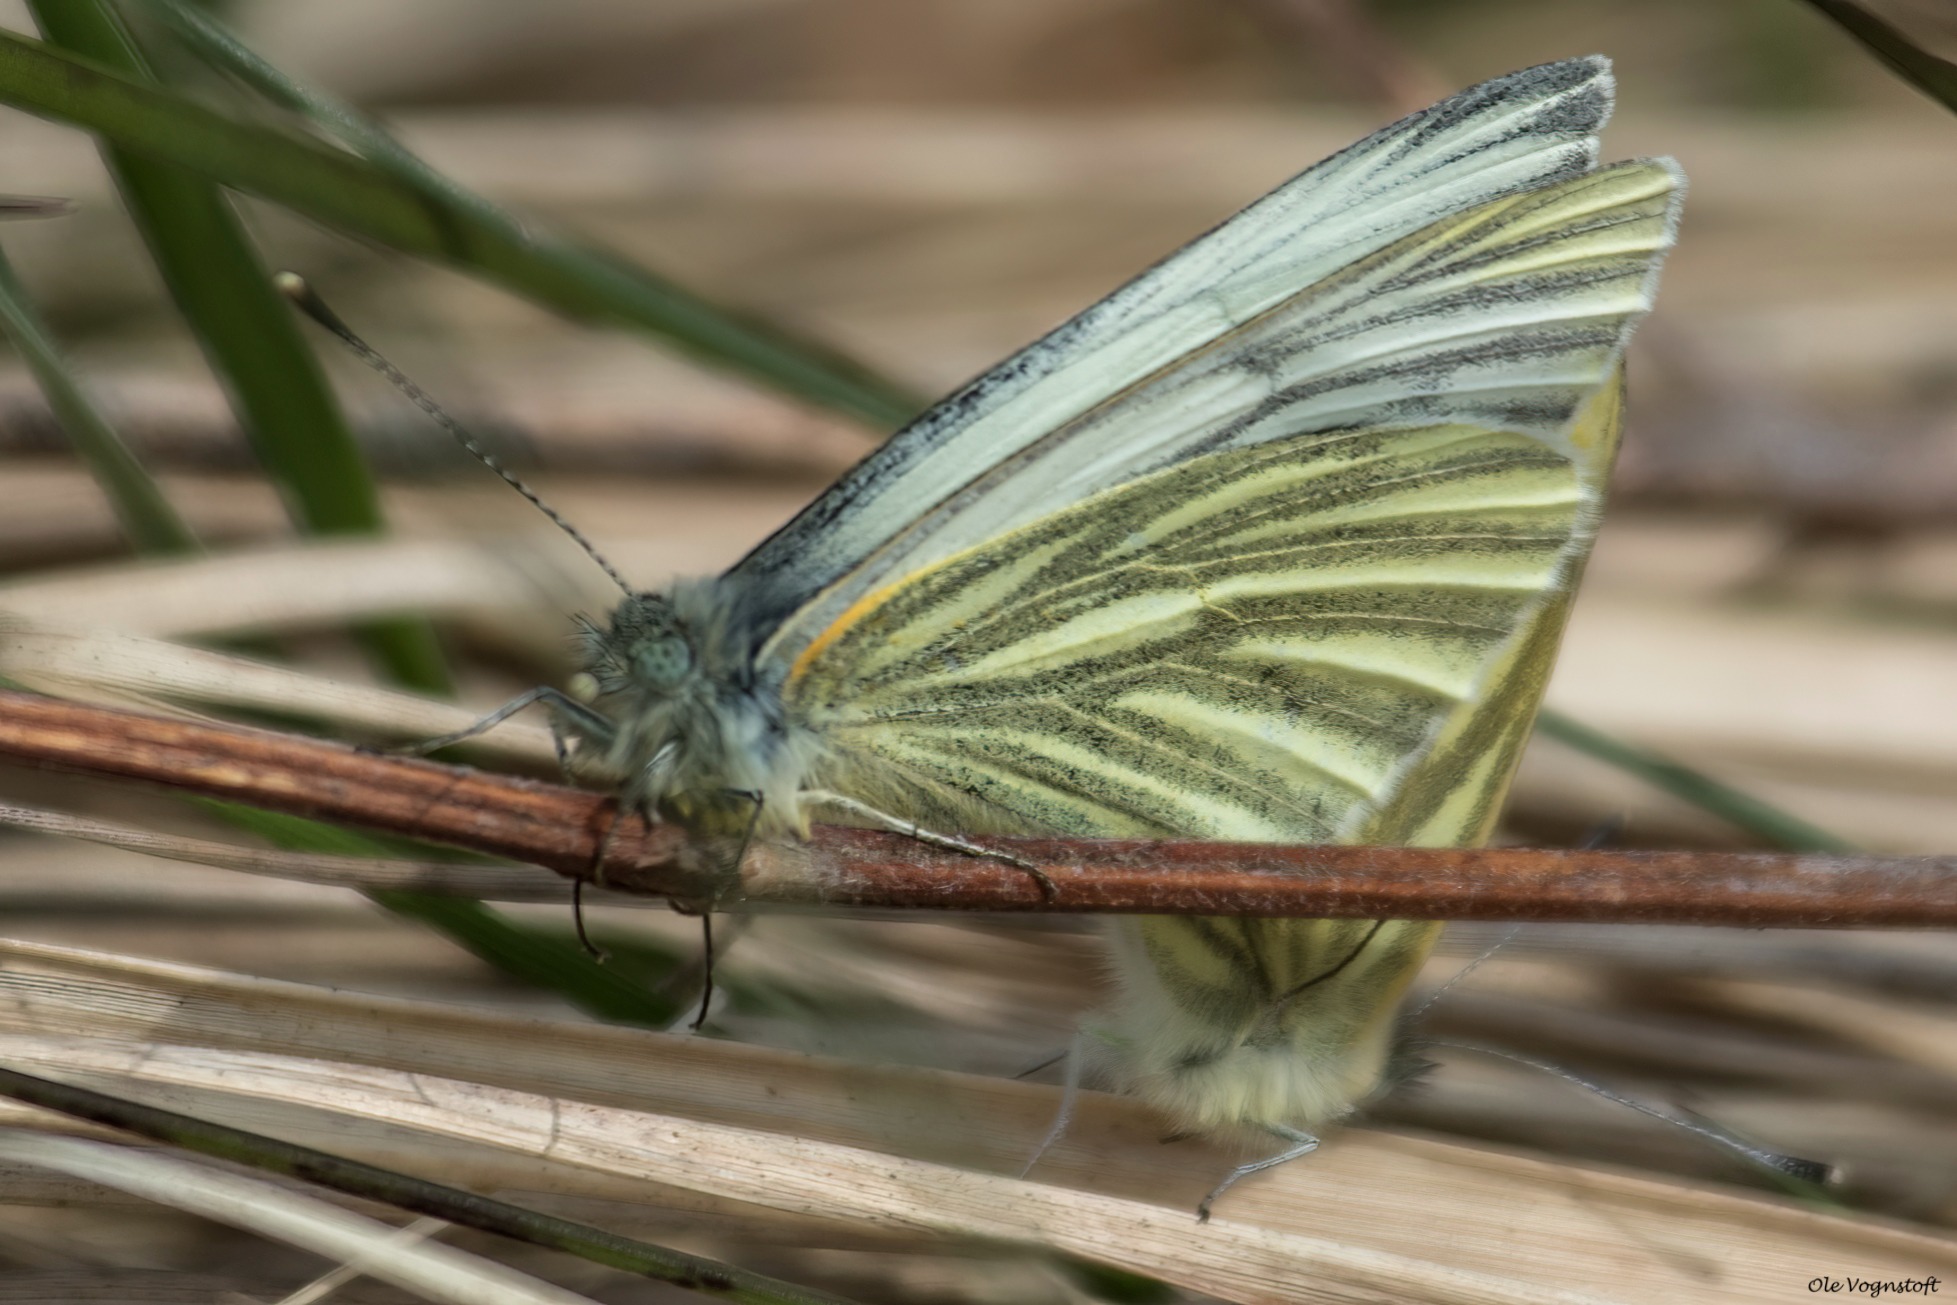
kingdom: Animalia
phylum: Arthropoda
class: Insecta
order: Lepidoptera
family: Pieridae
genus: Pieris
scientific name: Pieris napi
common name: Grønåret kålsommerfugl
